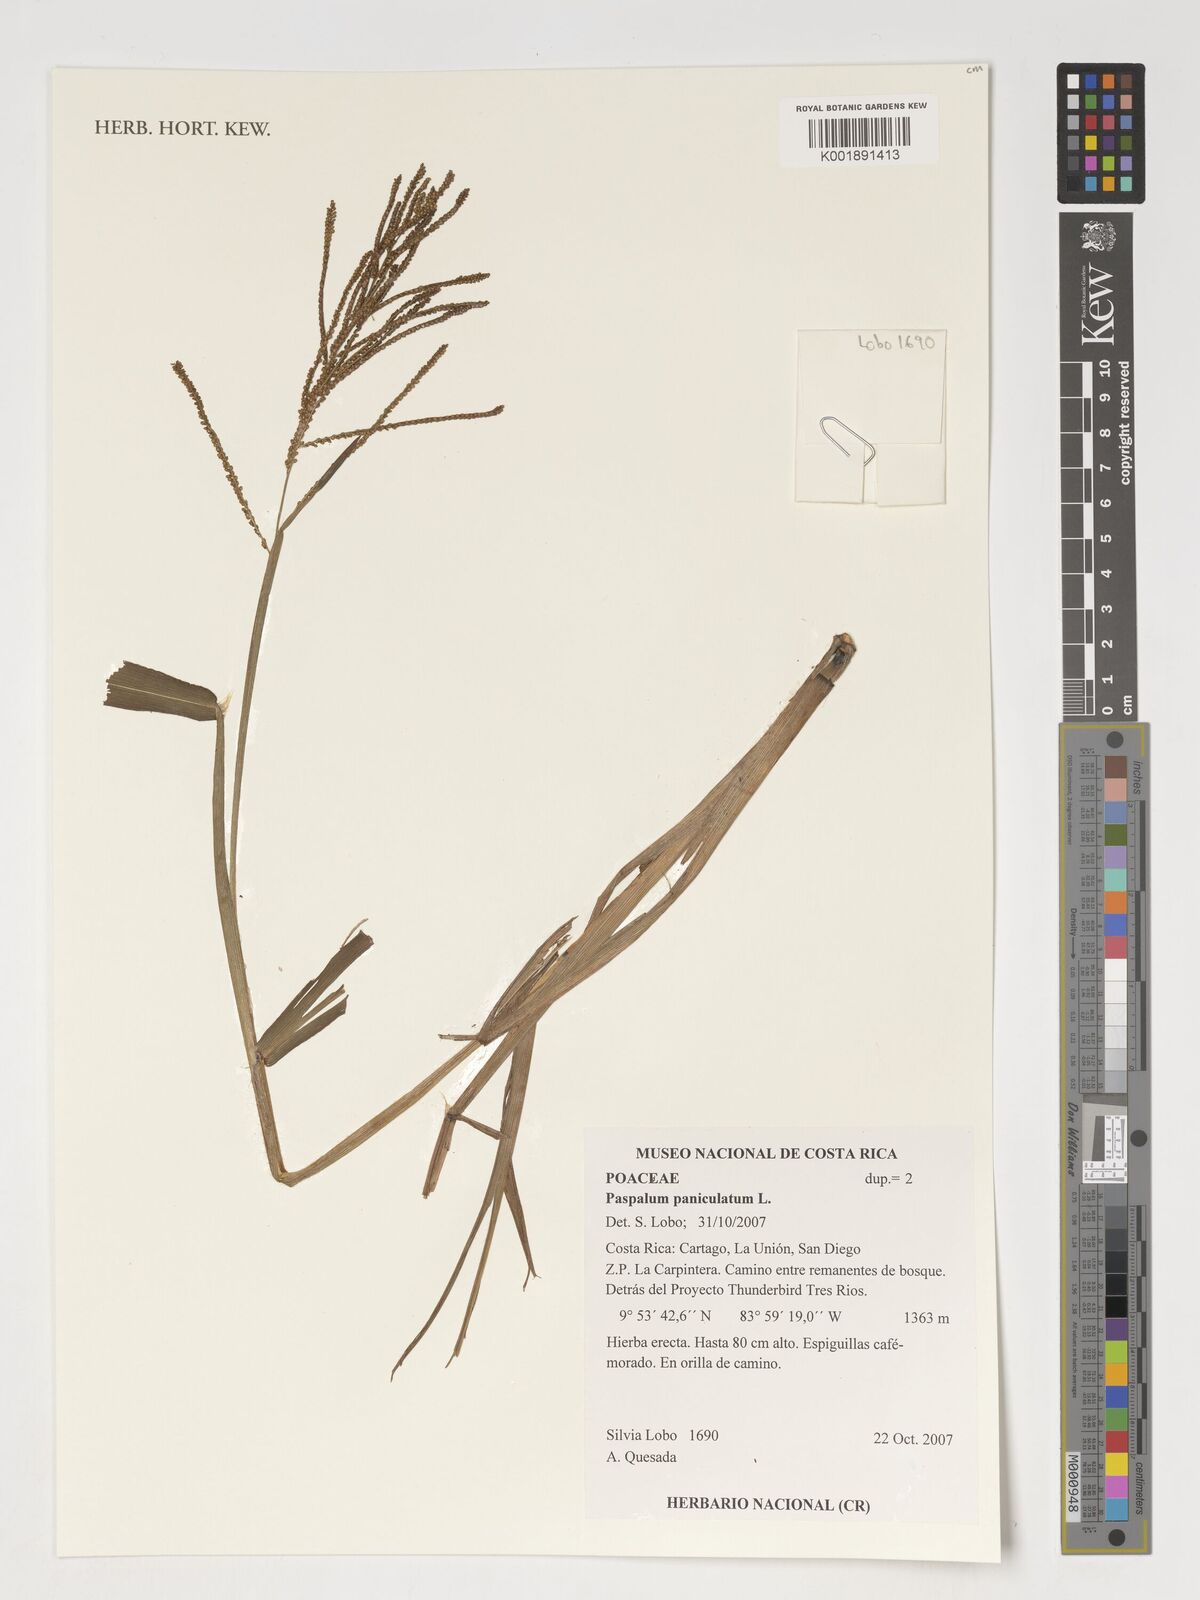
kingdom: Plantae
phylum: Tracheophyta
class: Liliopsida
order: Poales
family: Poaceae
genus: Paspalum
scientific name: Paspalum paniculatum
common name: Arrocillo
